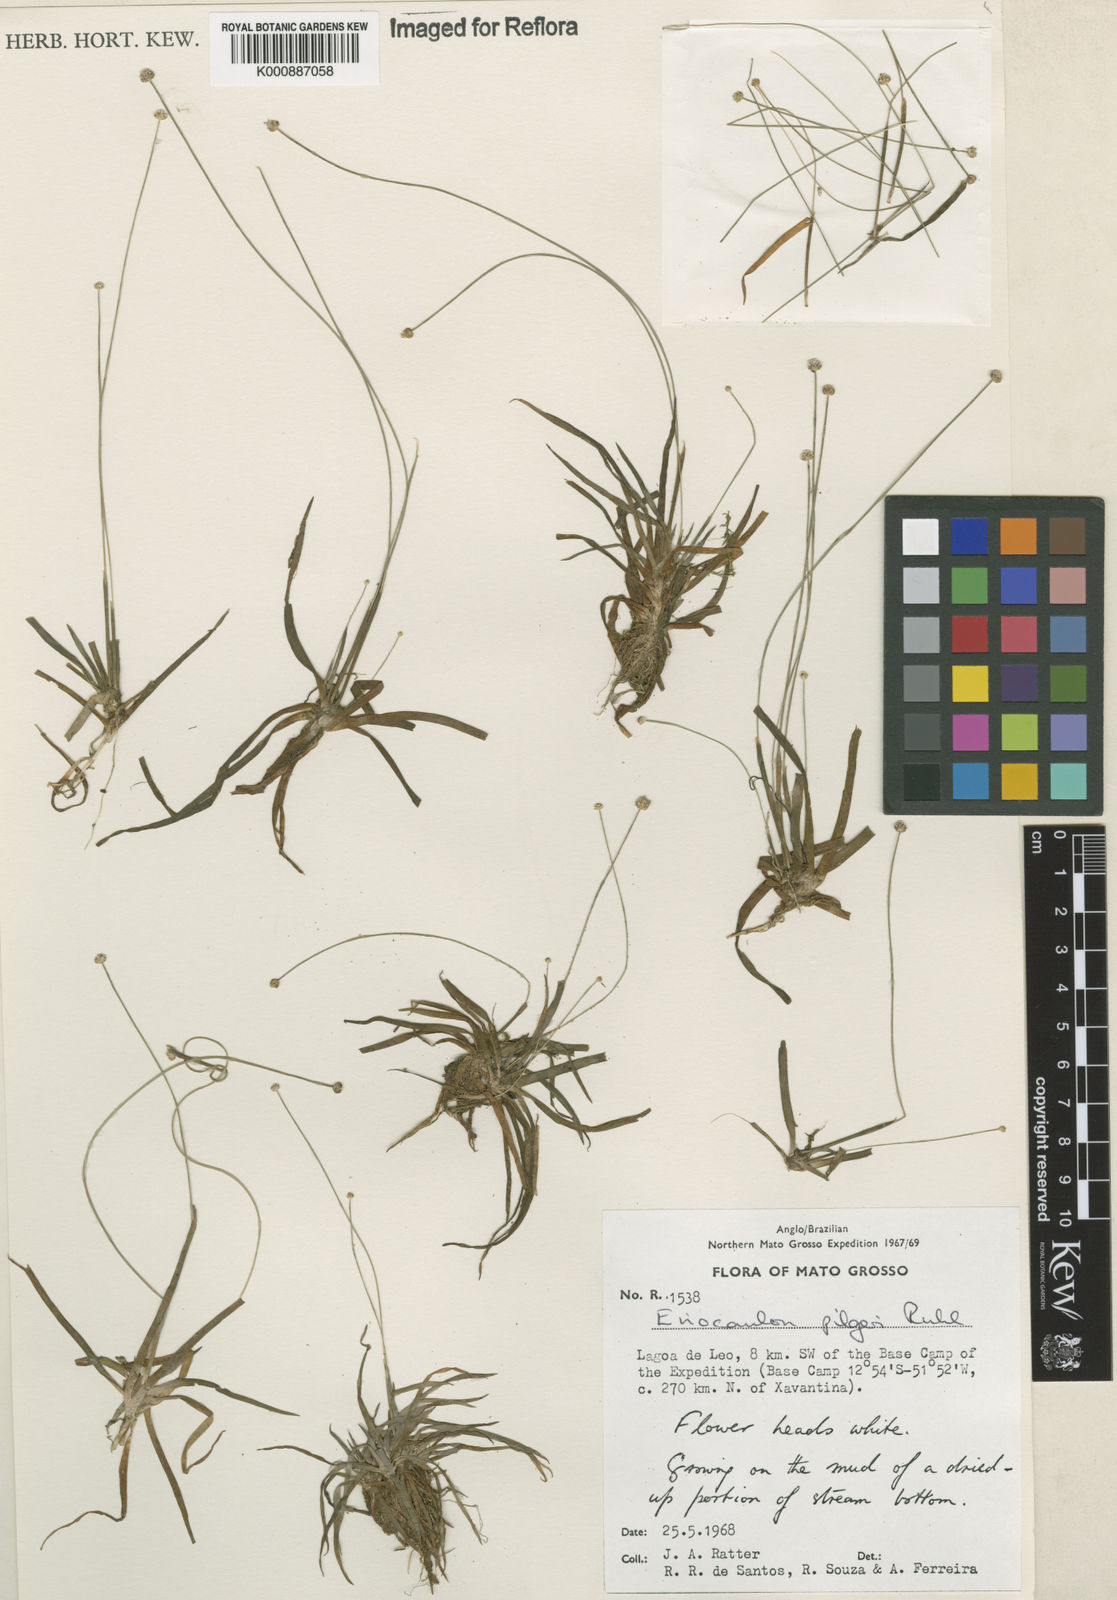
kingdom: Plantae
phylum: Tracheophyta
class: Liliopsida
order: Poales
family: Eriocaulaceae
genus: Eriocaulon
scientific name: Eriocaulon pilgeri
